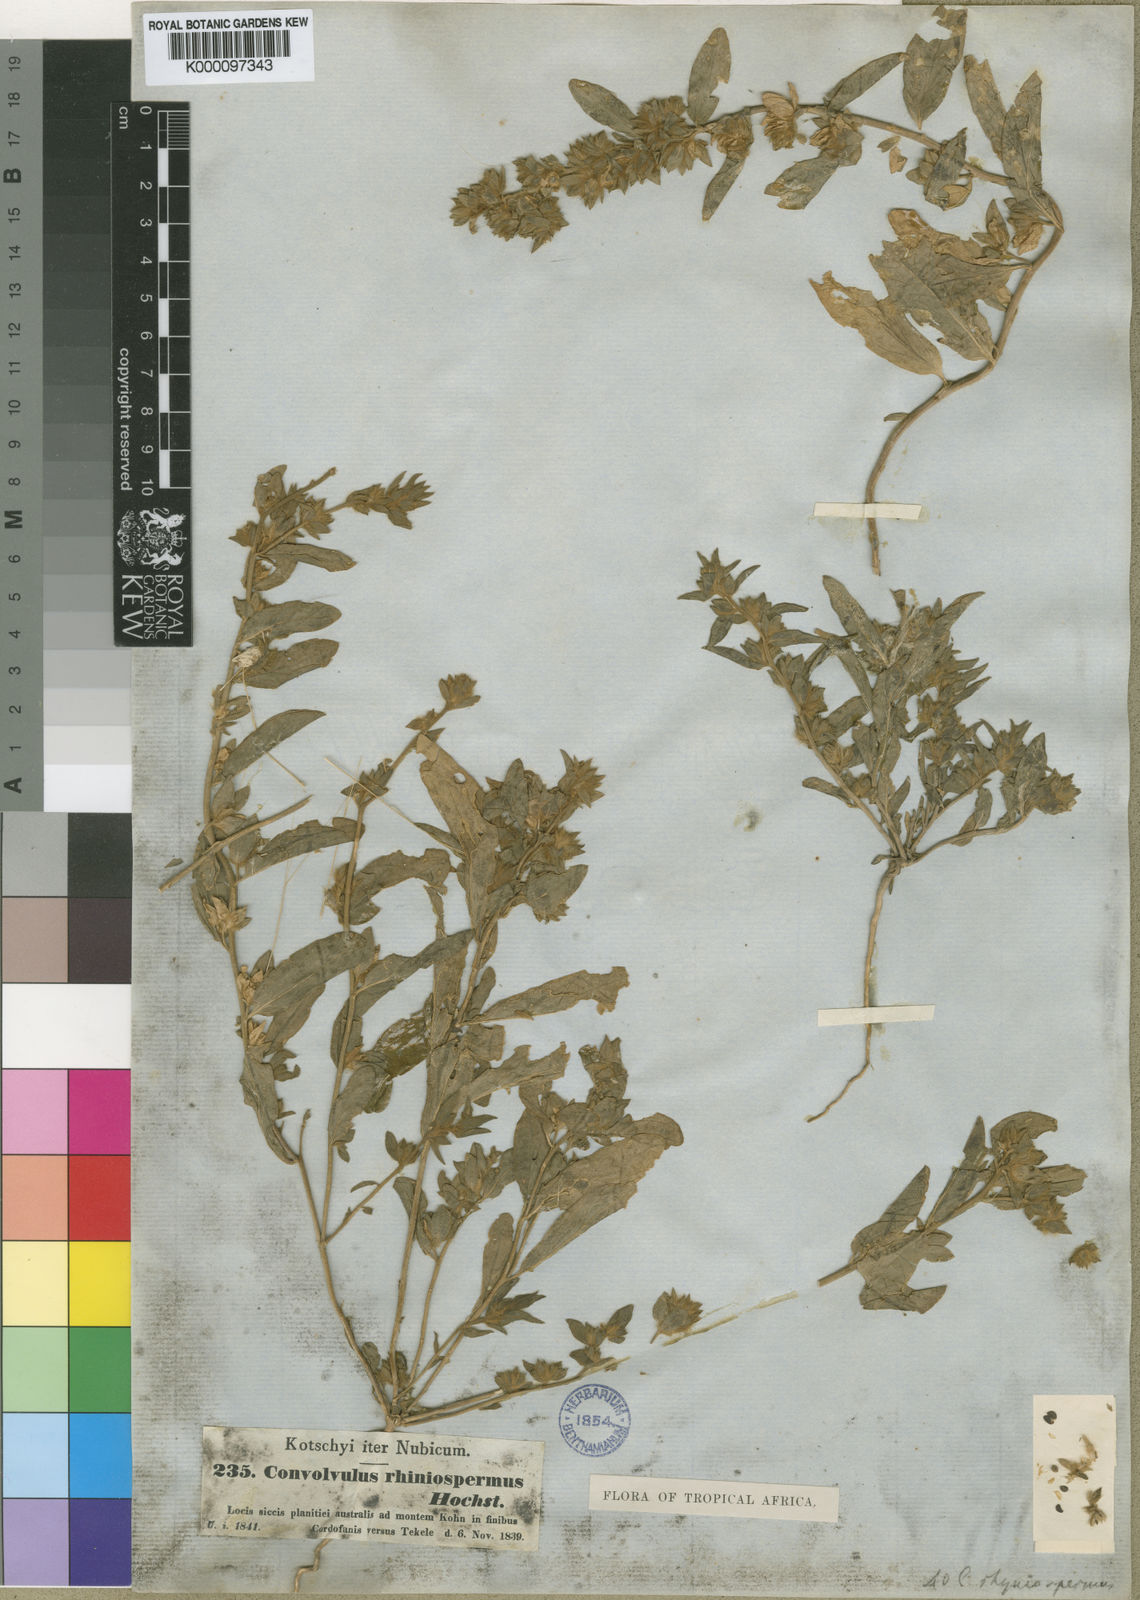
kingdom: Plantae
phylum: Tracheophyta
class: Magnoliopsida
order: Solanales
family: Convolvulaceae
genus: Convolvulus
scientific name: Convolvulus rhyniospermus
